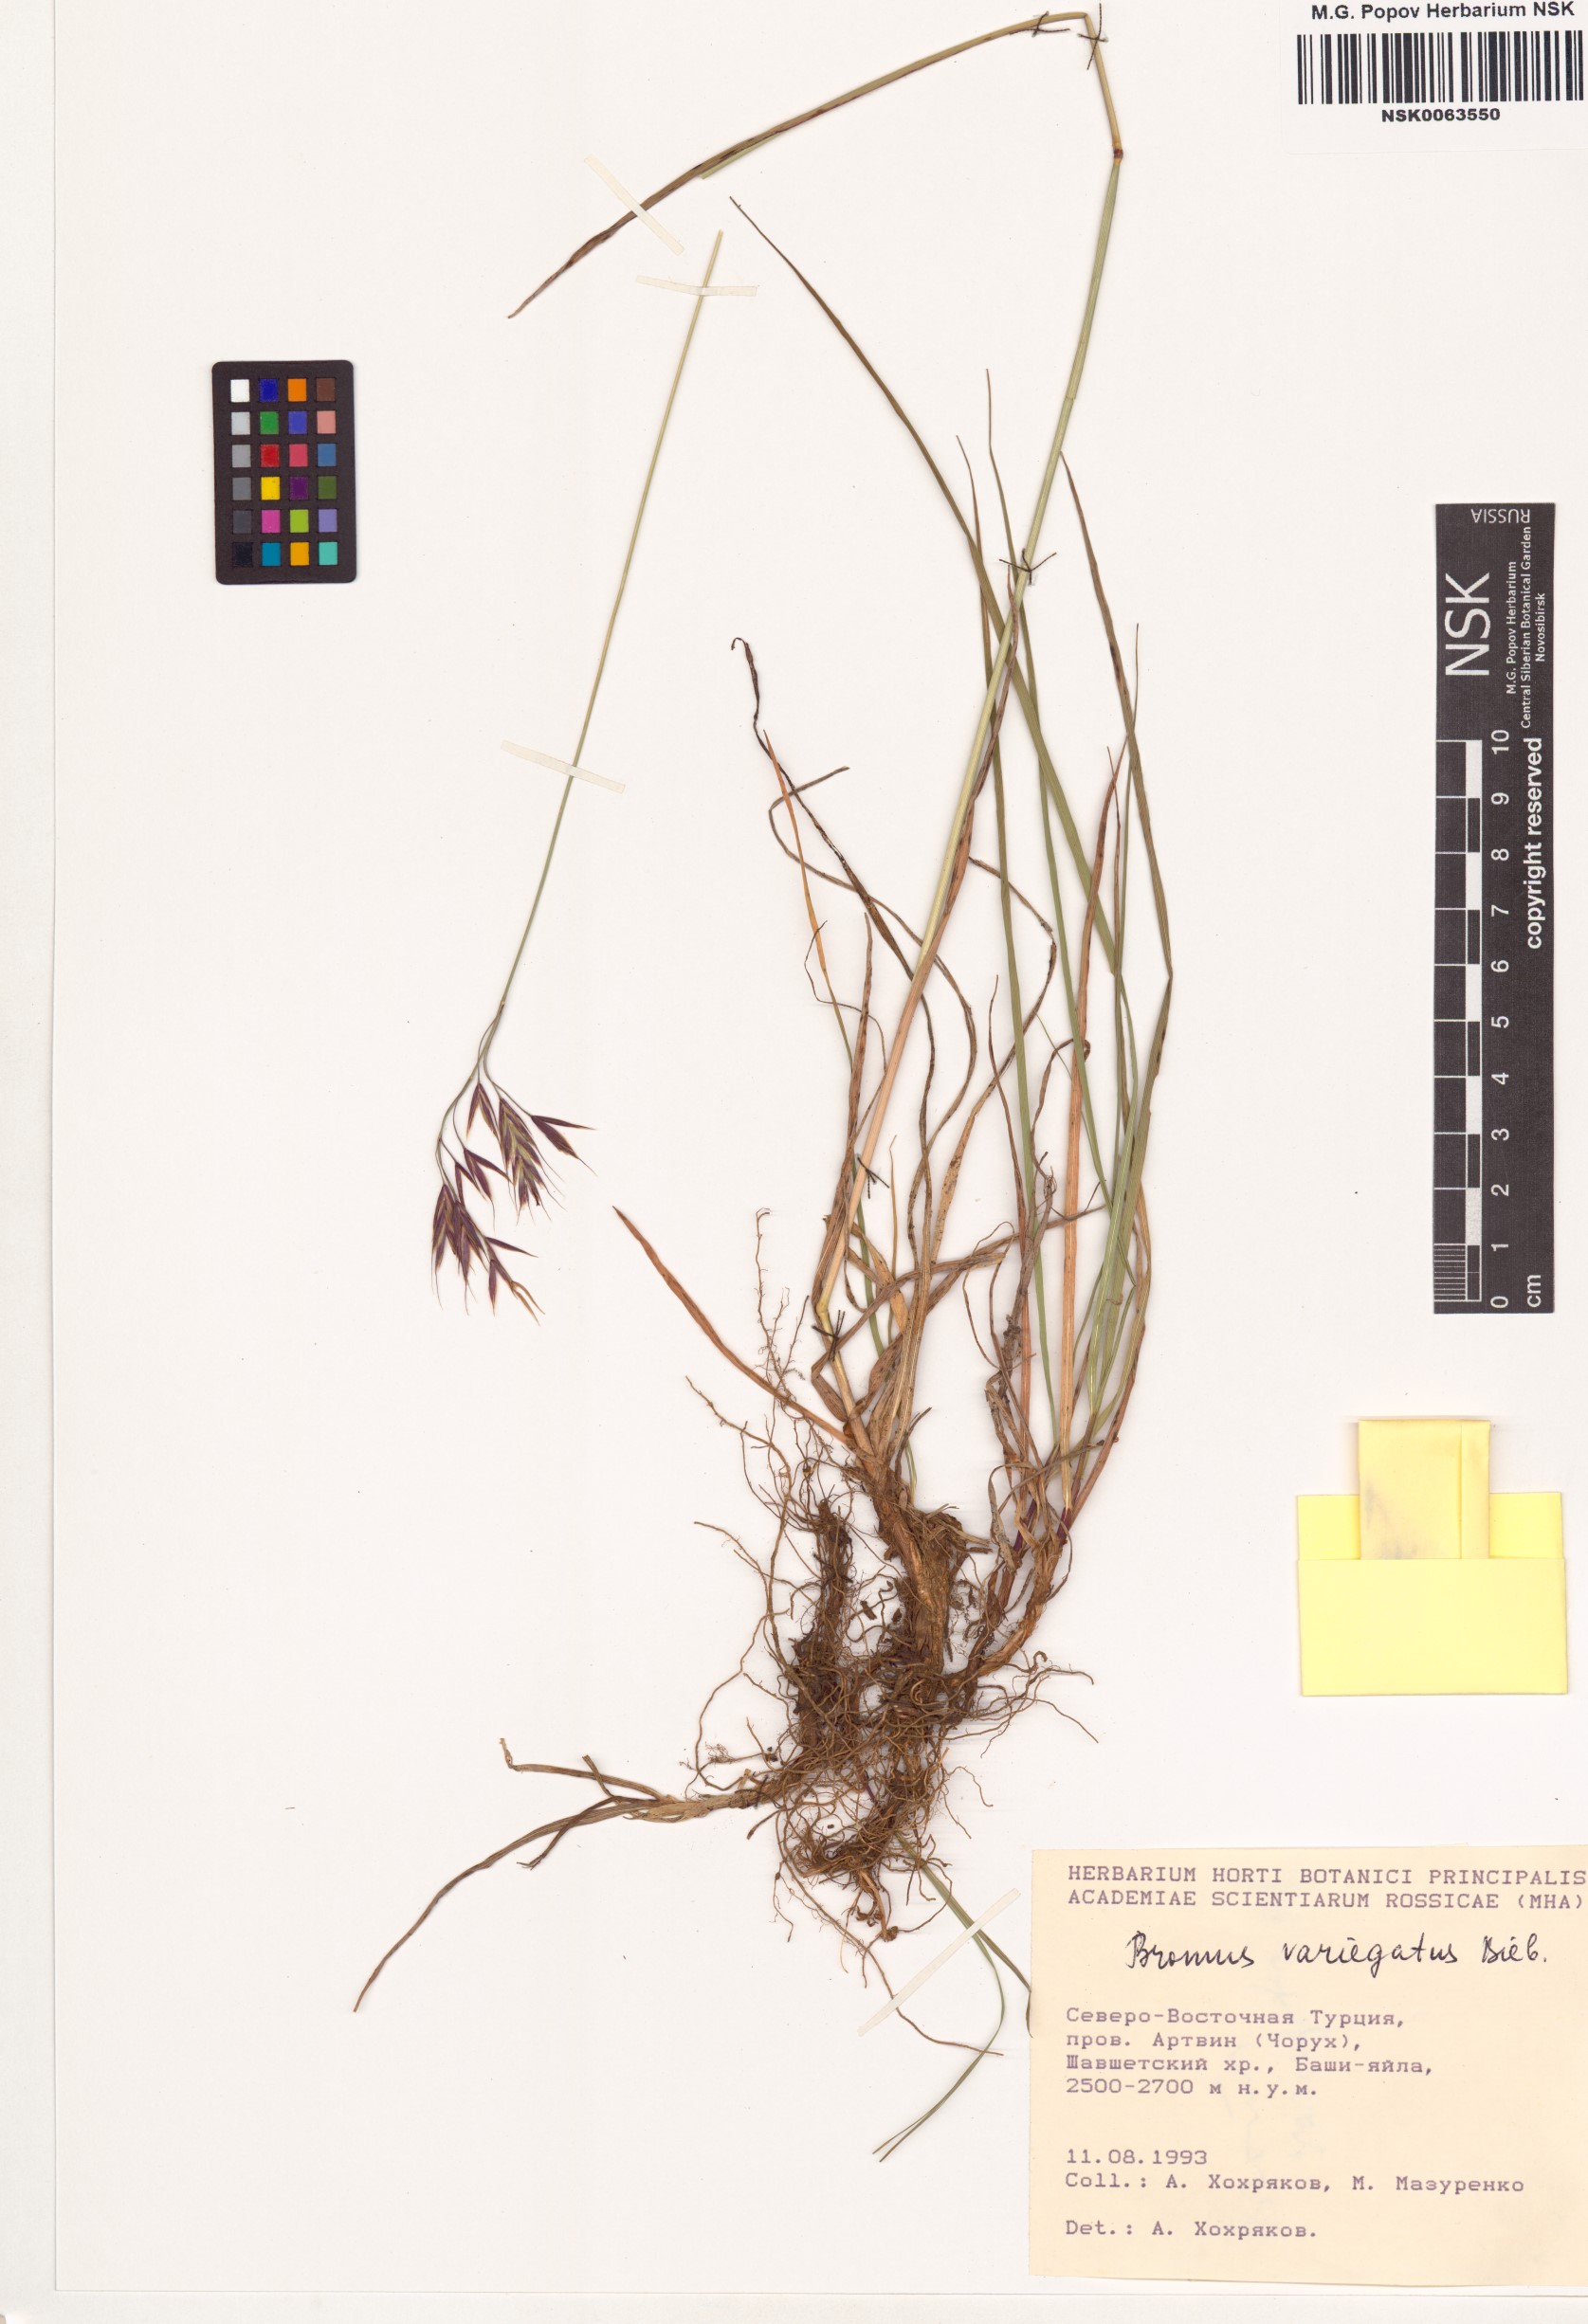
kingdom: Plantae
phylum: Tracheophyta
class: Liliopsida
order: Poales
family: Poaceae
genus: Bromus
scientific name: Bromus variegatus
